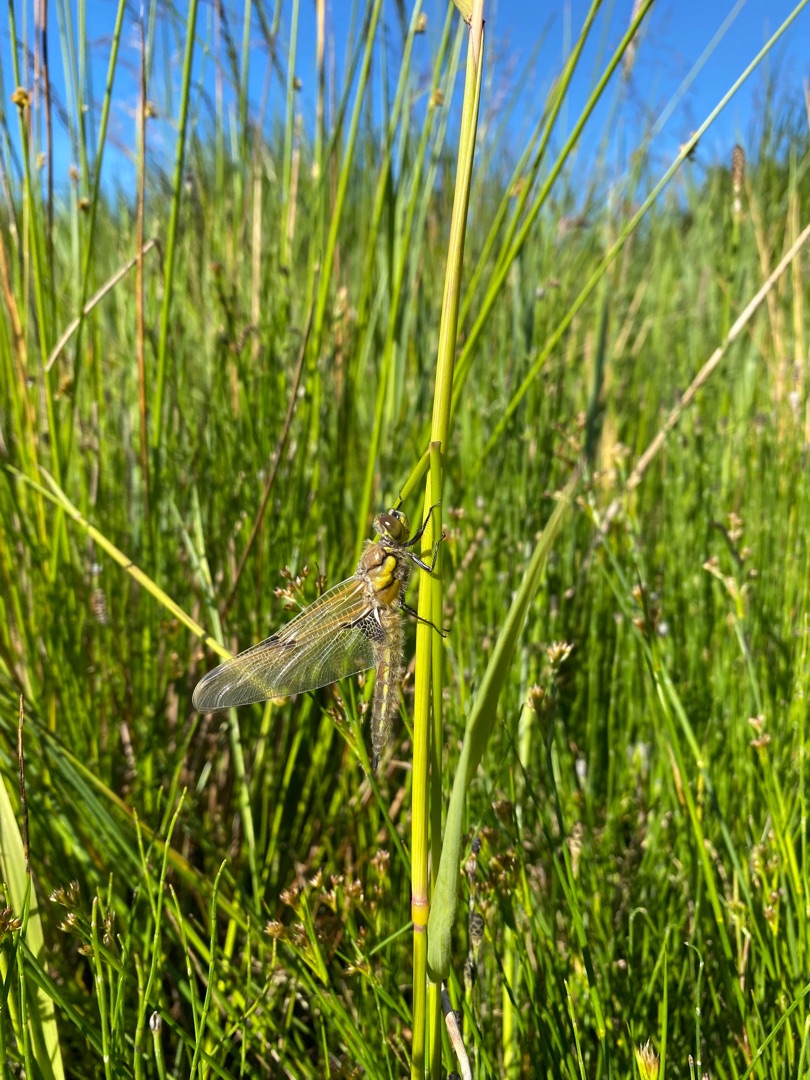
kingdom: Animalia
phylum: Arthropoda
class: Insecta
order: Odonata
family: Libellulidae
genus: Libellula
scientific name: Libellula quadrimaculata
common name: Fireplettet libel
